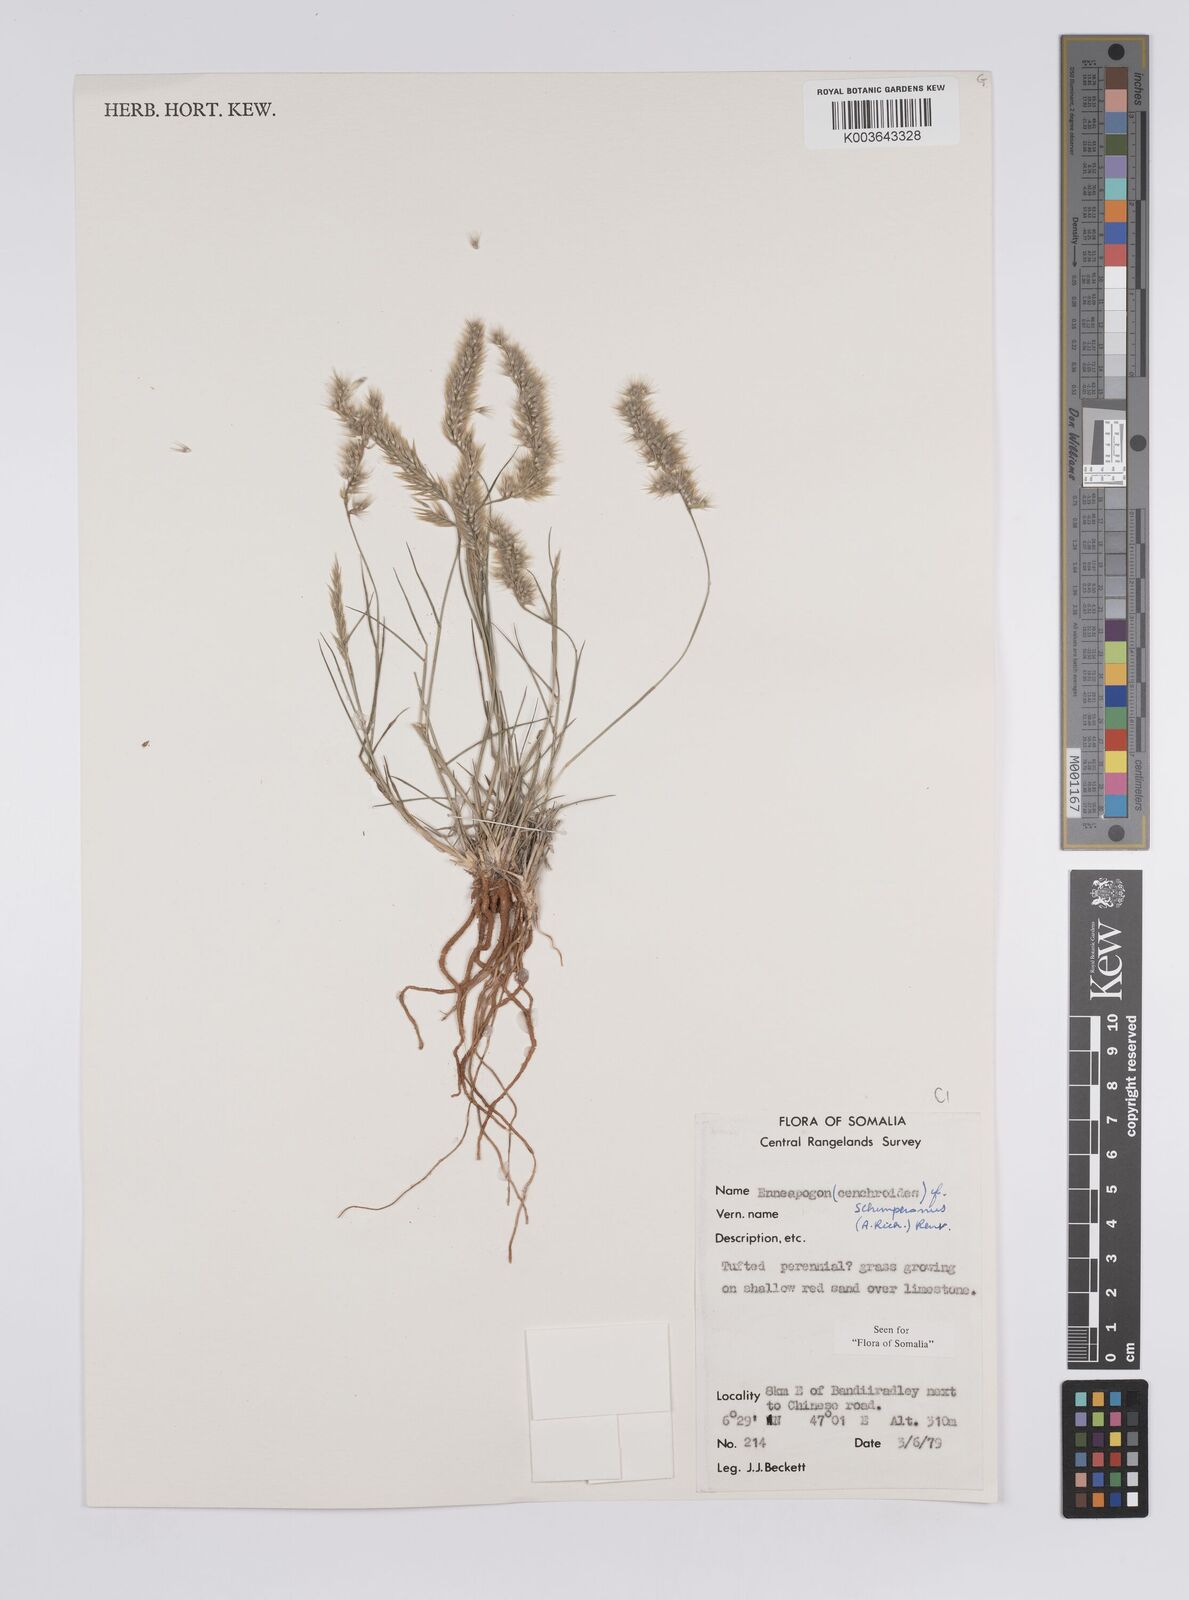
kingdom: Plantae
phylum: Tracheophyta
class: Liliopsida
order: Poales
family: Poaceae
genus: Enneapogon
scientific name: Enneapogon persicus
